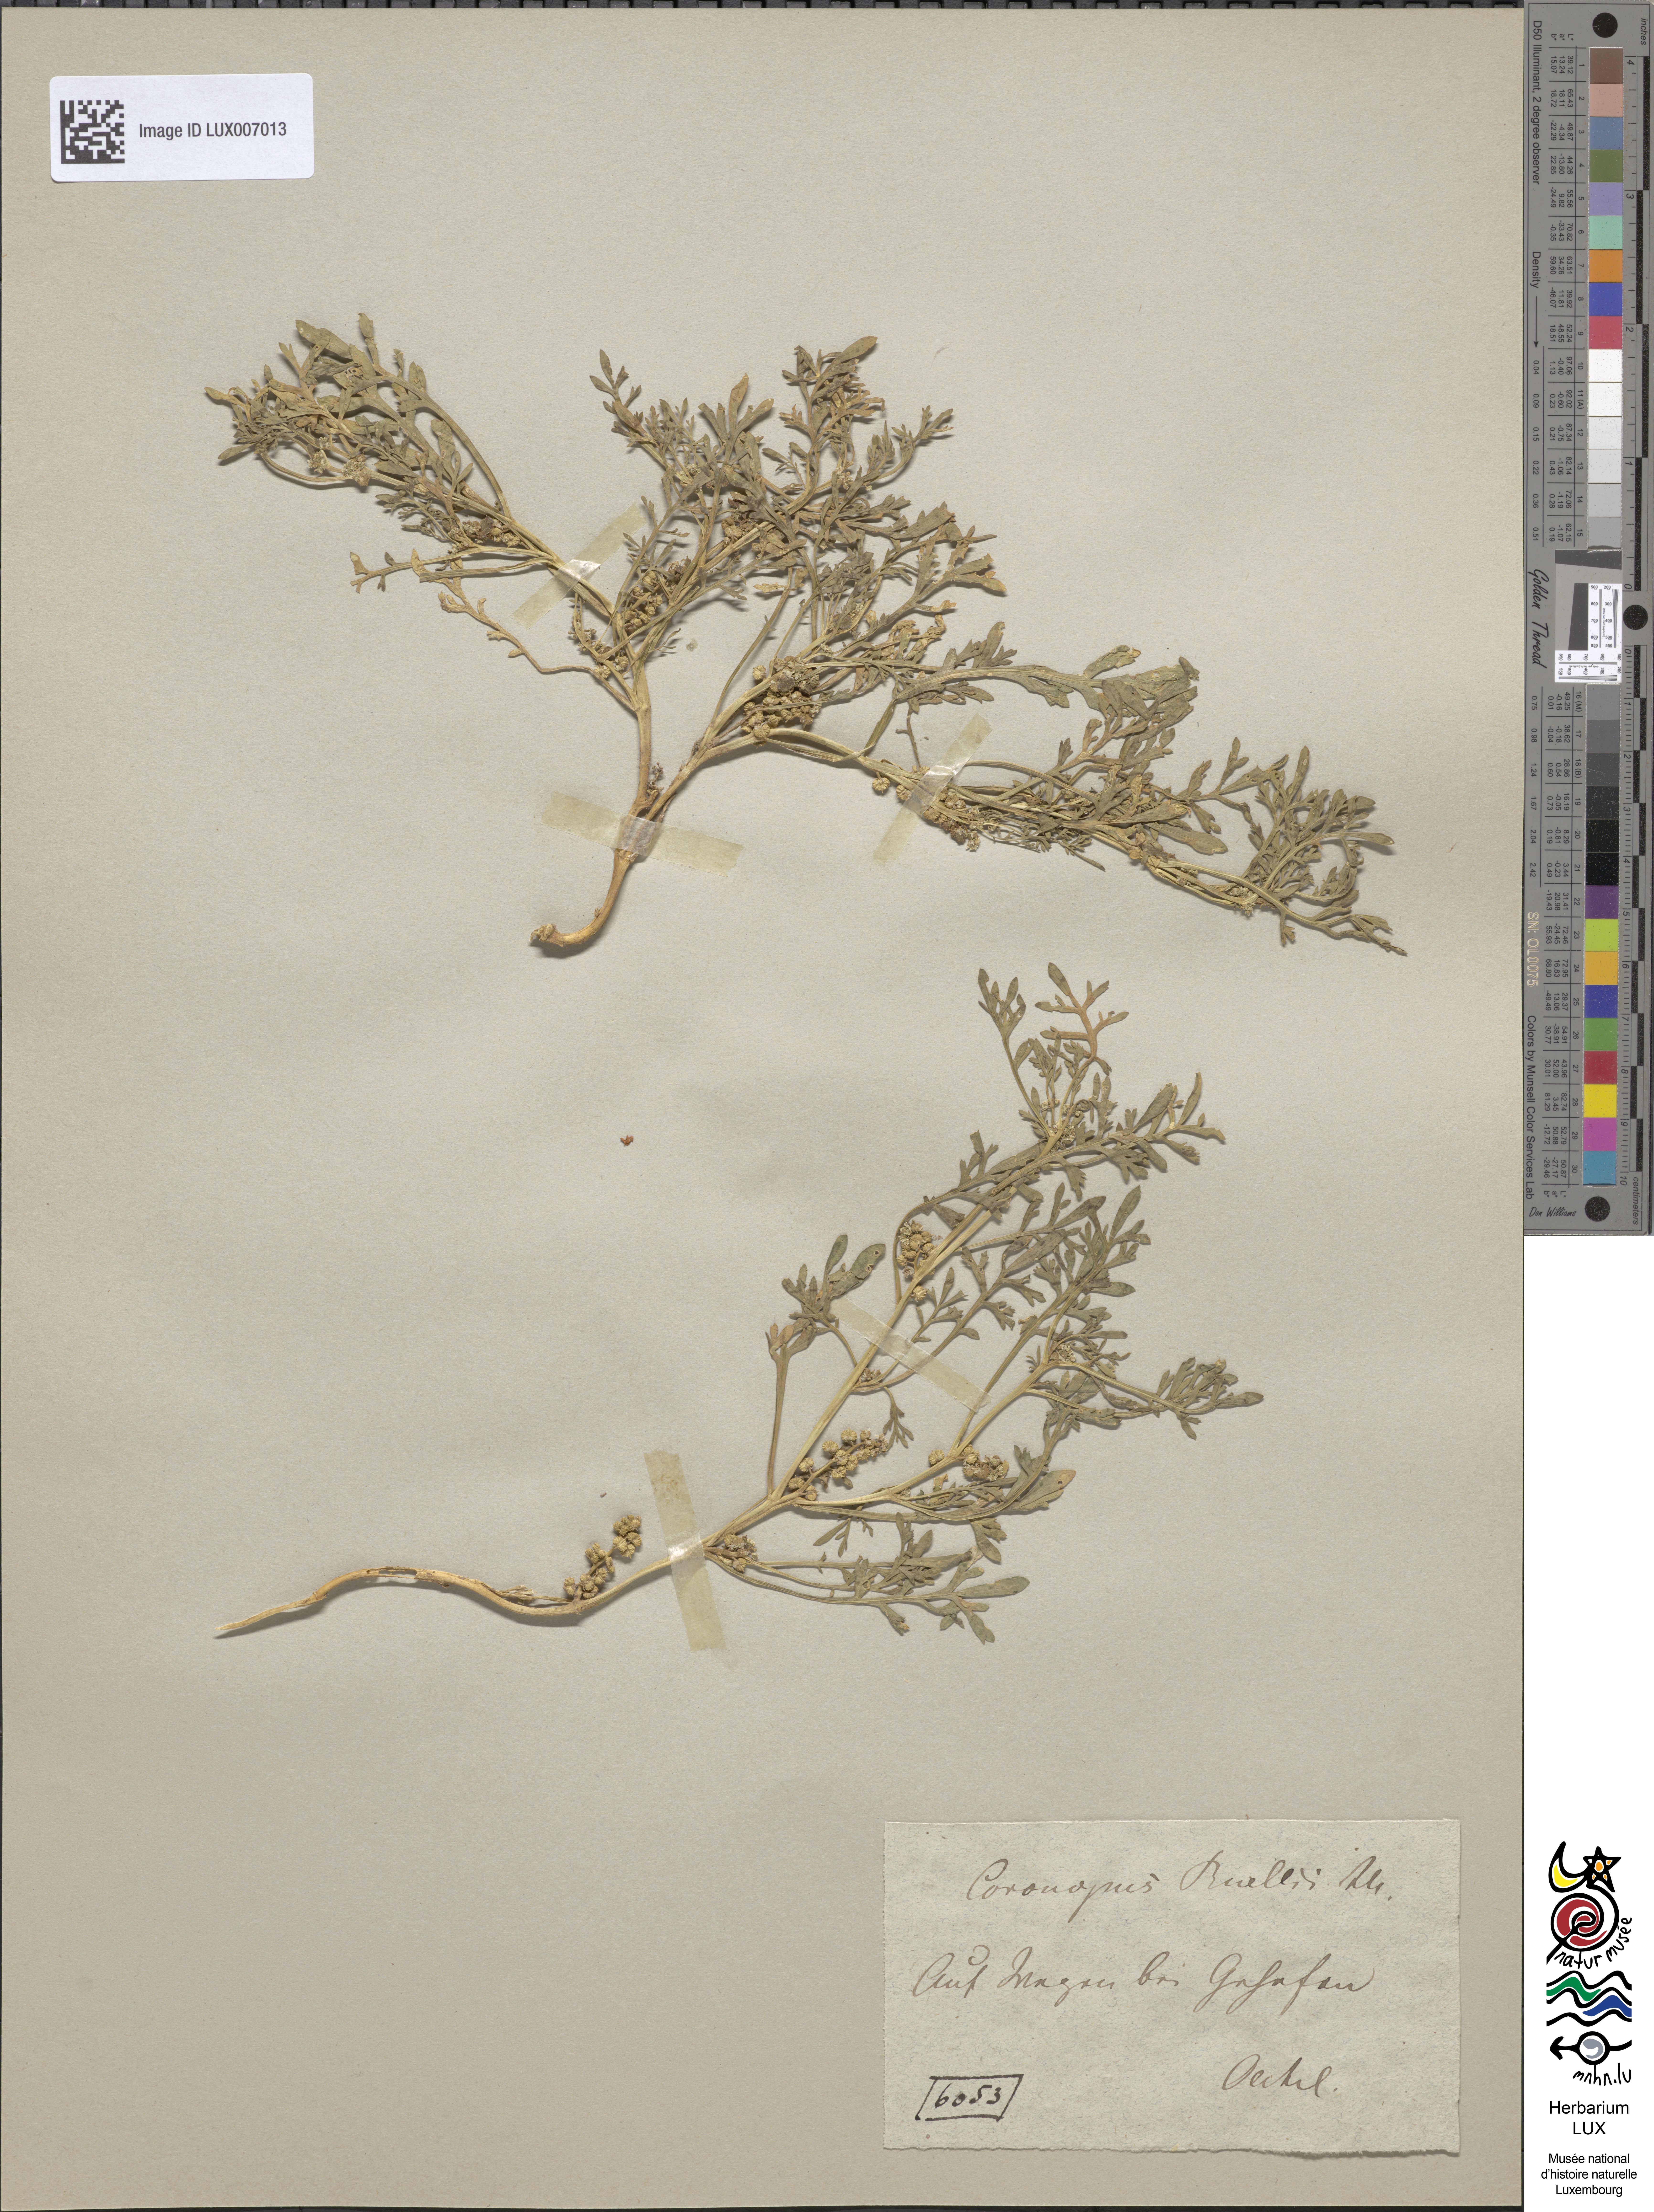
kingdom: Plantae
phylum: Tracheophyta
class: Magnoliopsida
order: Brassicales
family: Brassicaceae
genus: Lepidium
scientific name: Lepidium coronopus
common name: Greater swinecress
